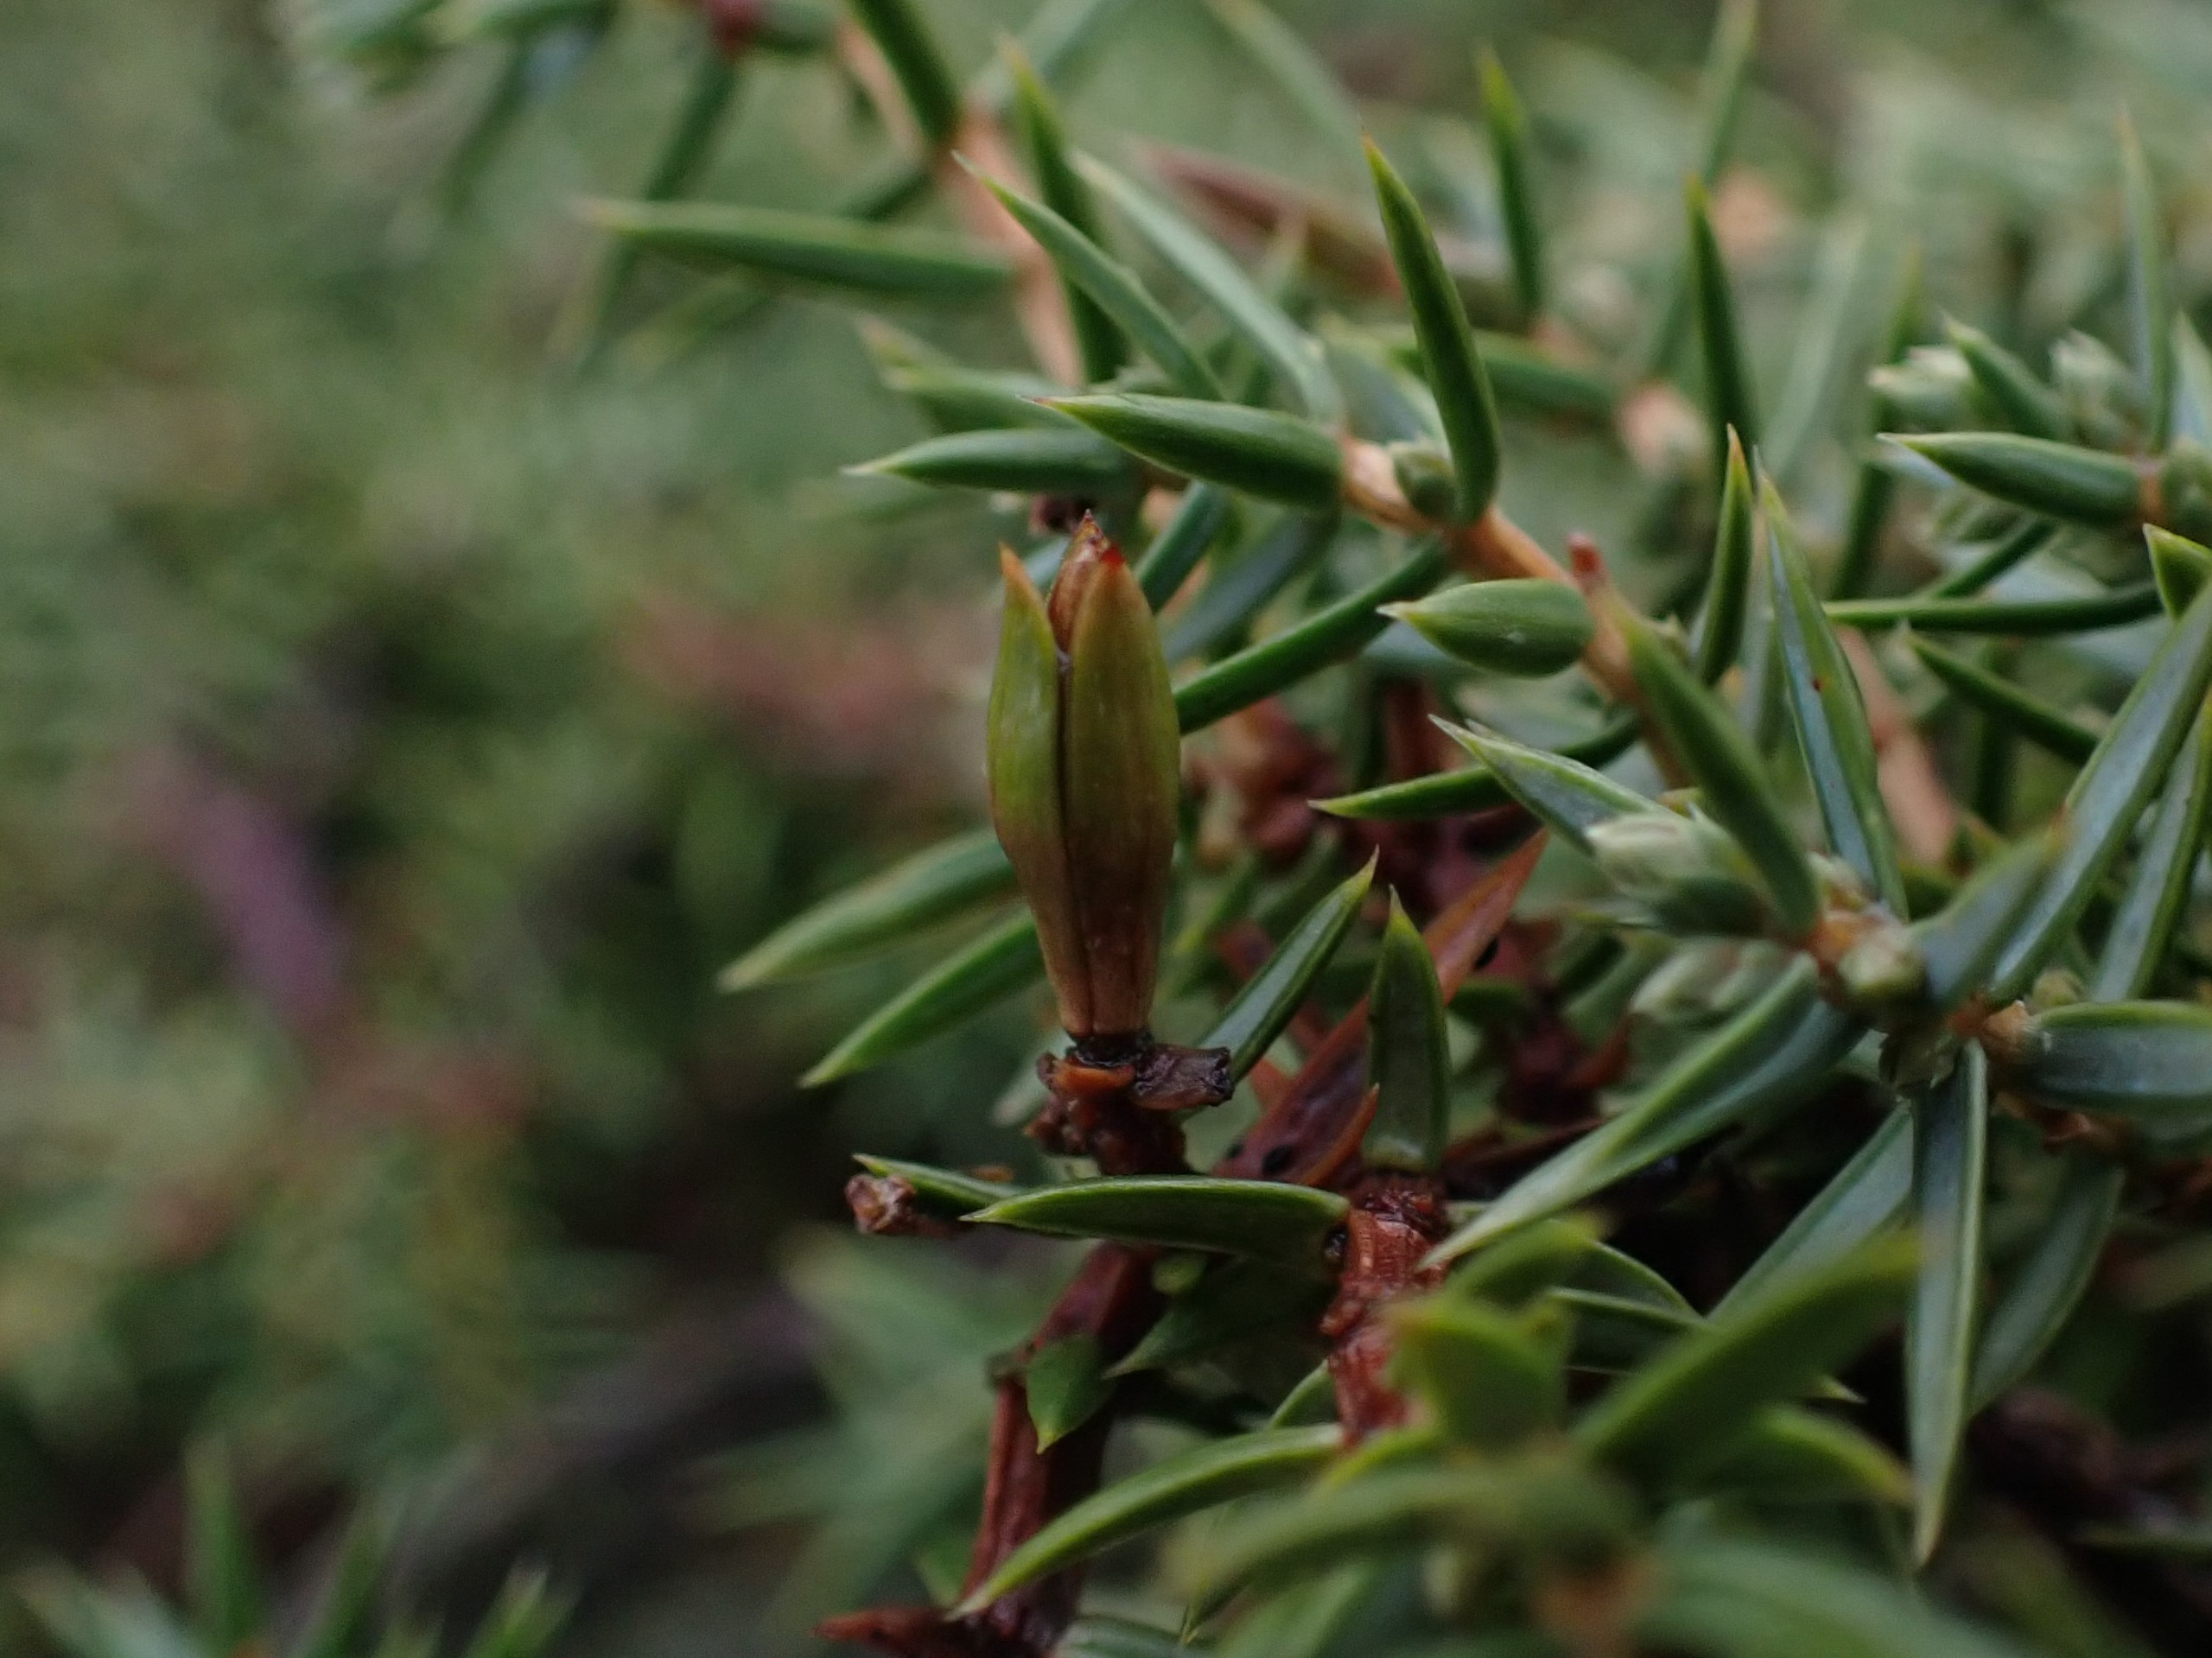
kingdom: Animalia
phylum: Arthropoda
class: Insecta
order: Diptera
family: Cecidomyiidae
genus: Oligotrophus
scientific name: Oligotrophus juniperinus
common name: Kikbærgalmyg
